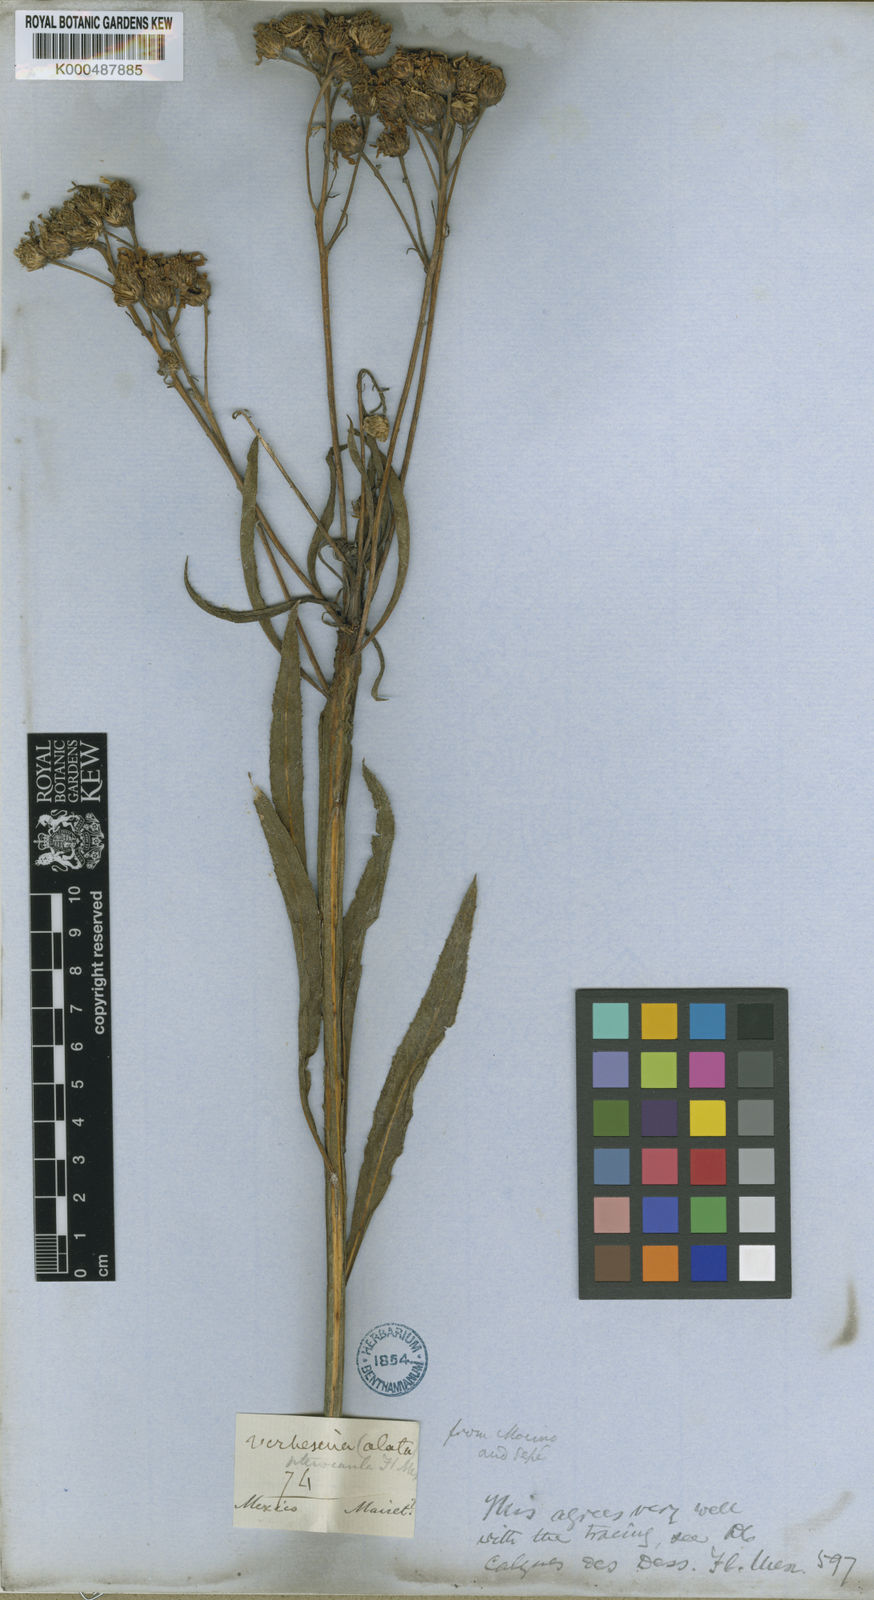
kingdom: Plantae
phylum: Tracheophyta
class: Magnoliopsida
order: Asterales
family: Asteraceae
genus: Verbesina
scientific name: Verbesina pterocaula
